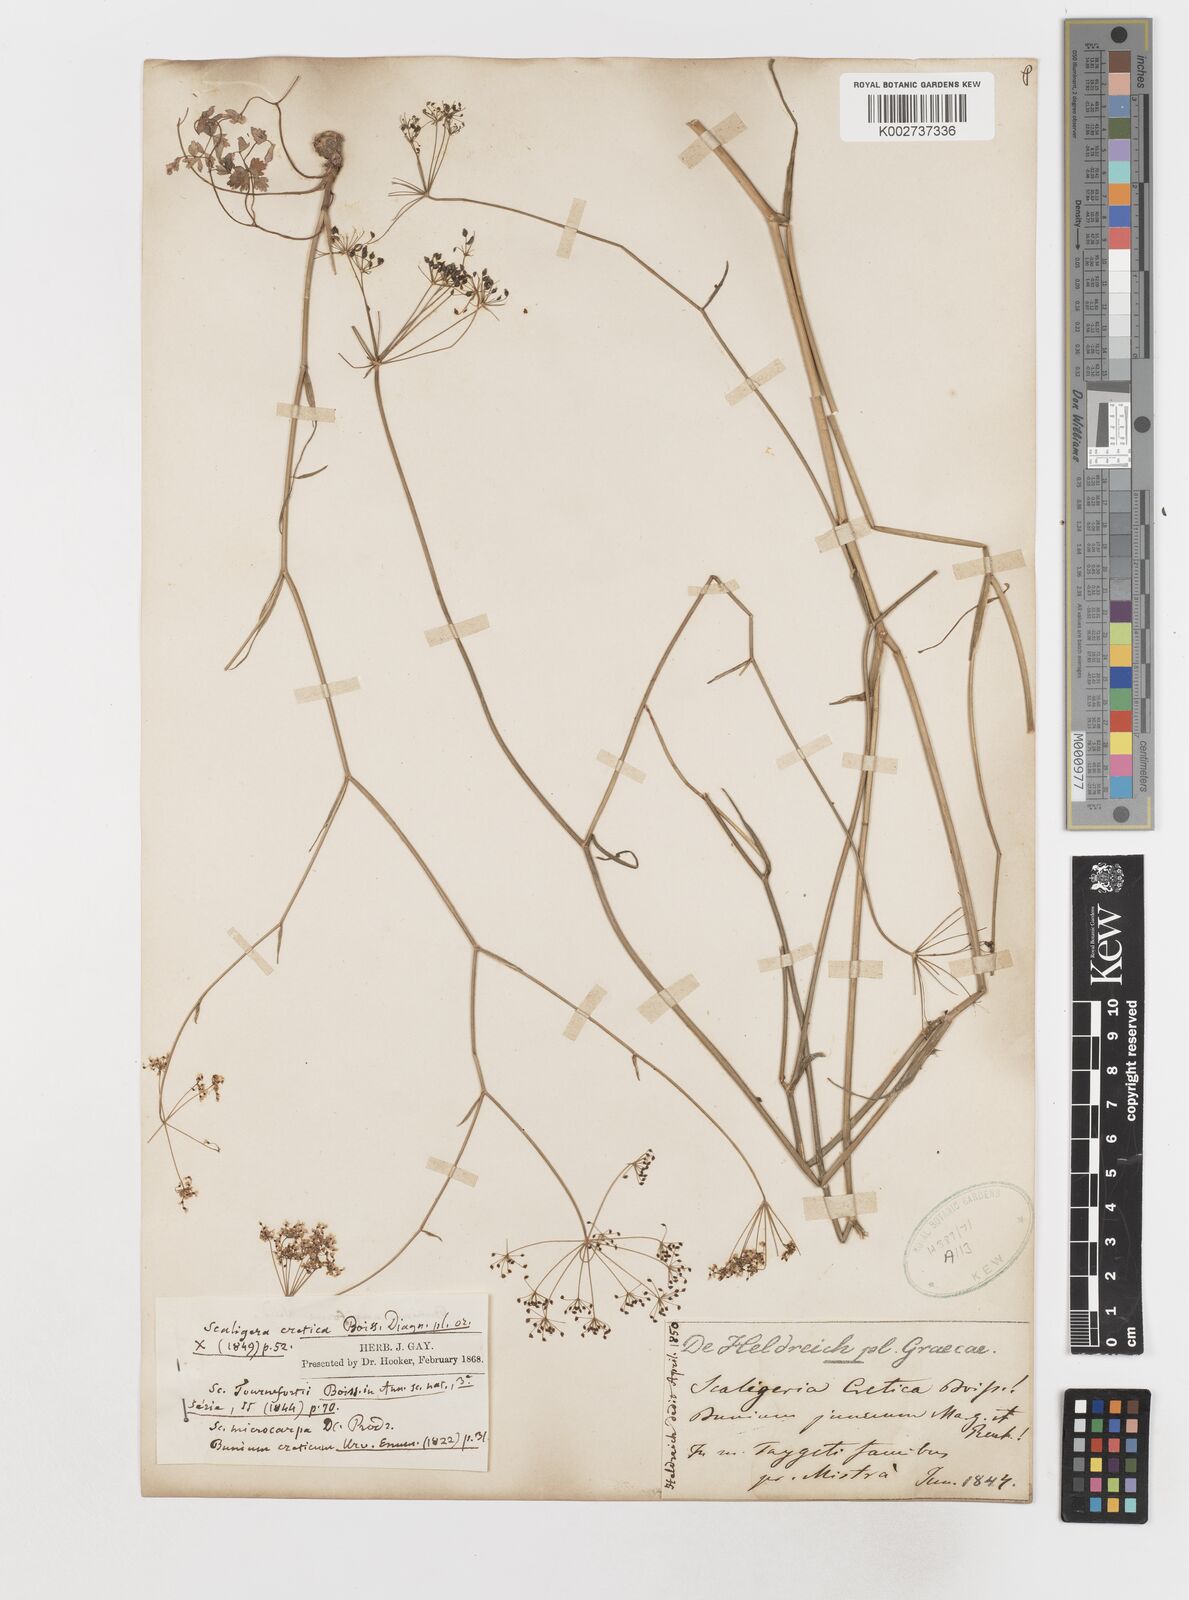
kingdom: Plantae
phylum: Tracheophyta
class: Magnoliopsida
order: Apiales
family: Apiaceae
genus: Scaligeria
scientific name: Scaligeria napiformis
